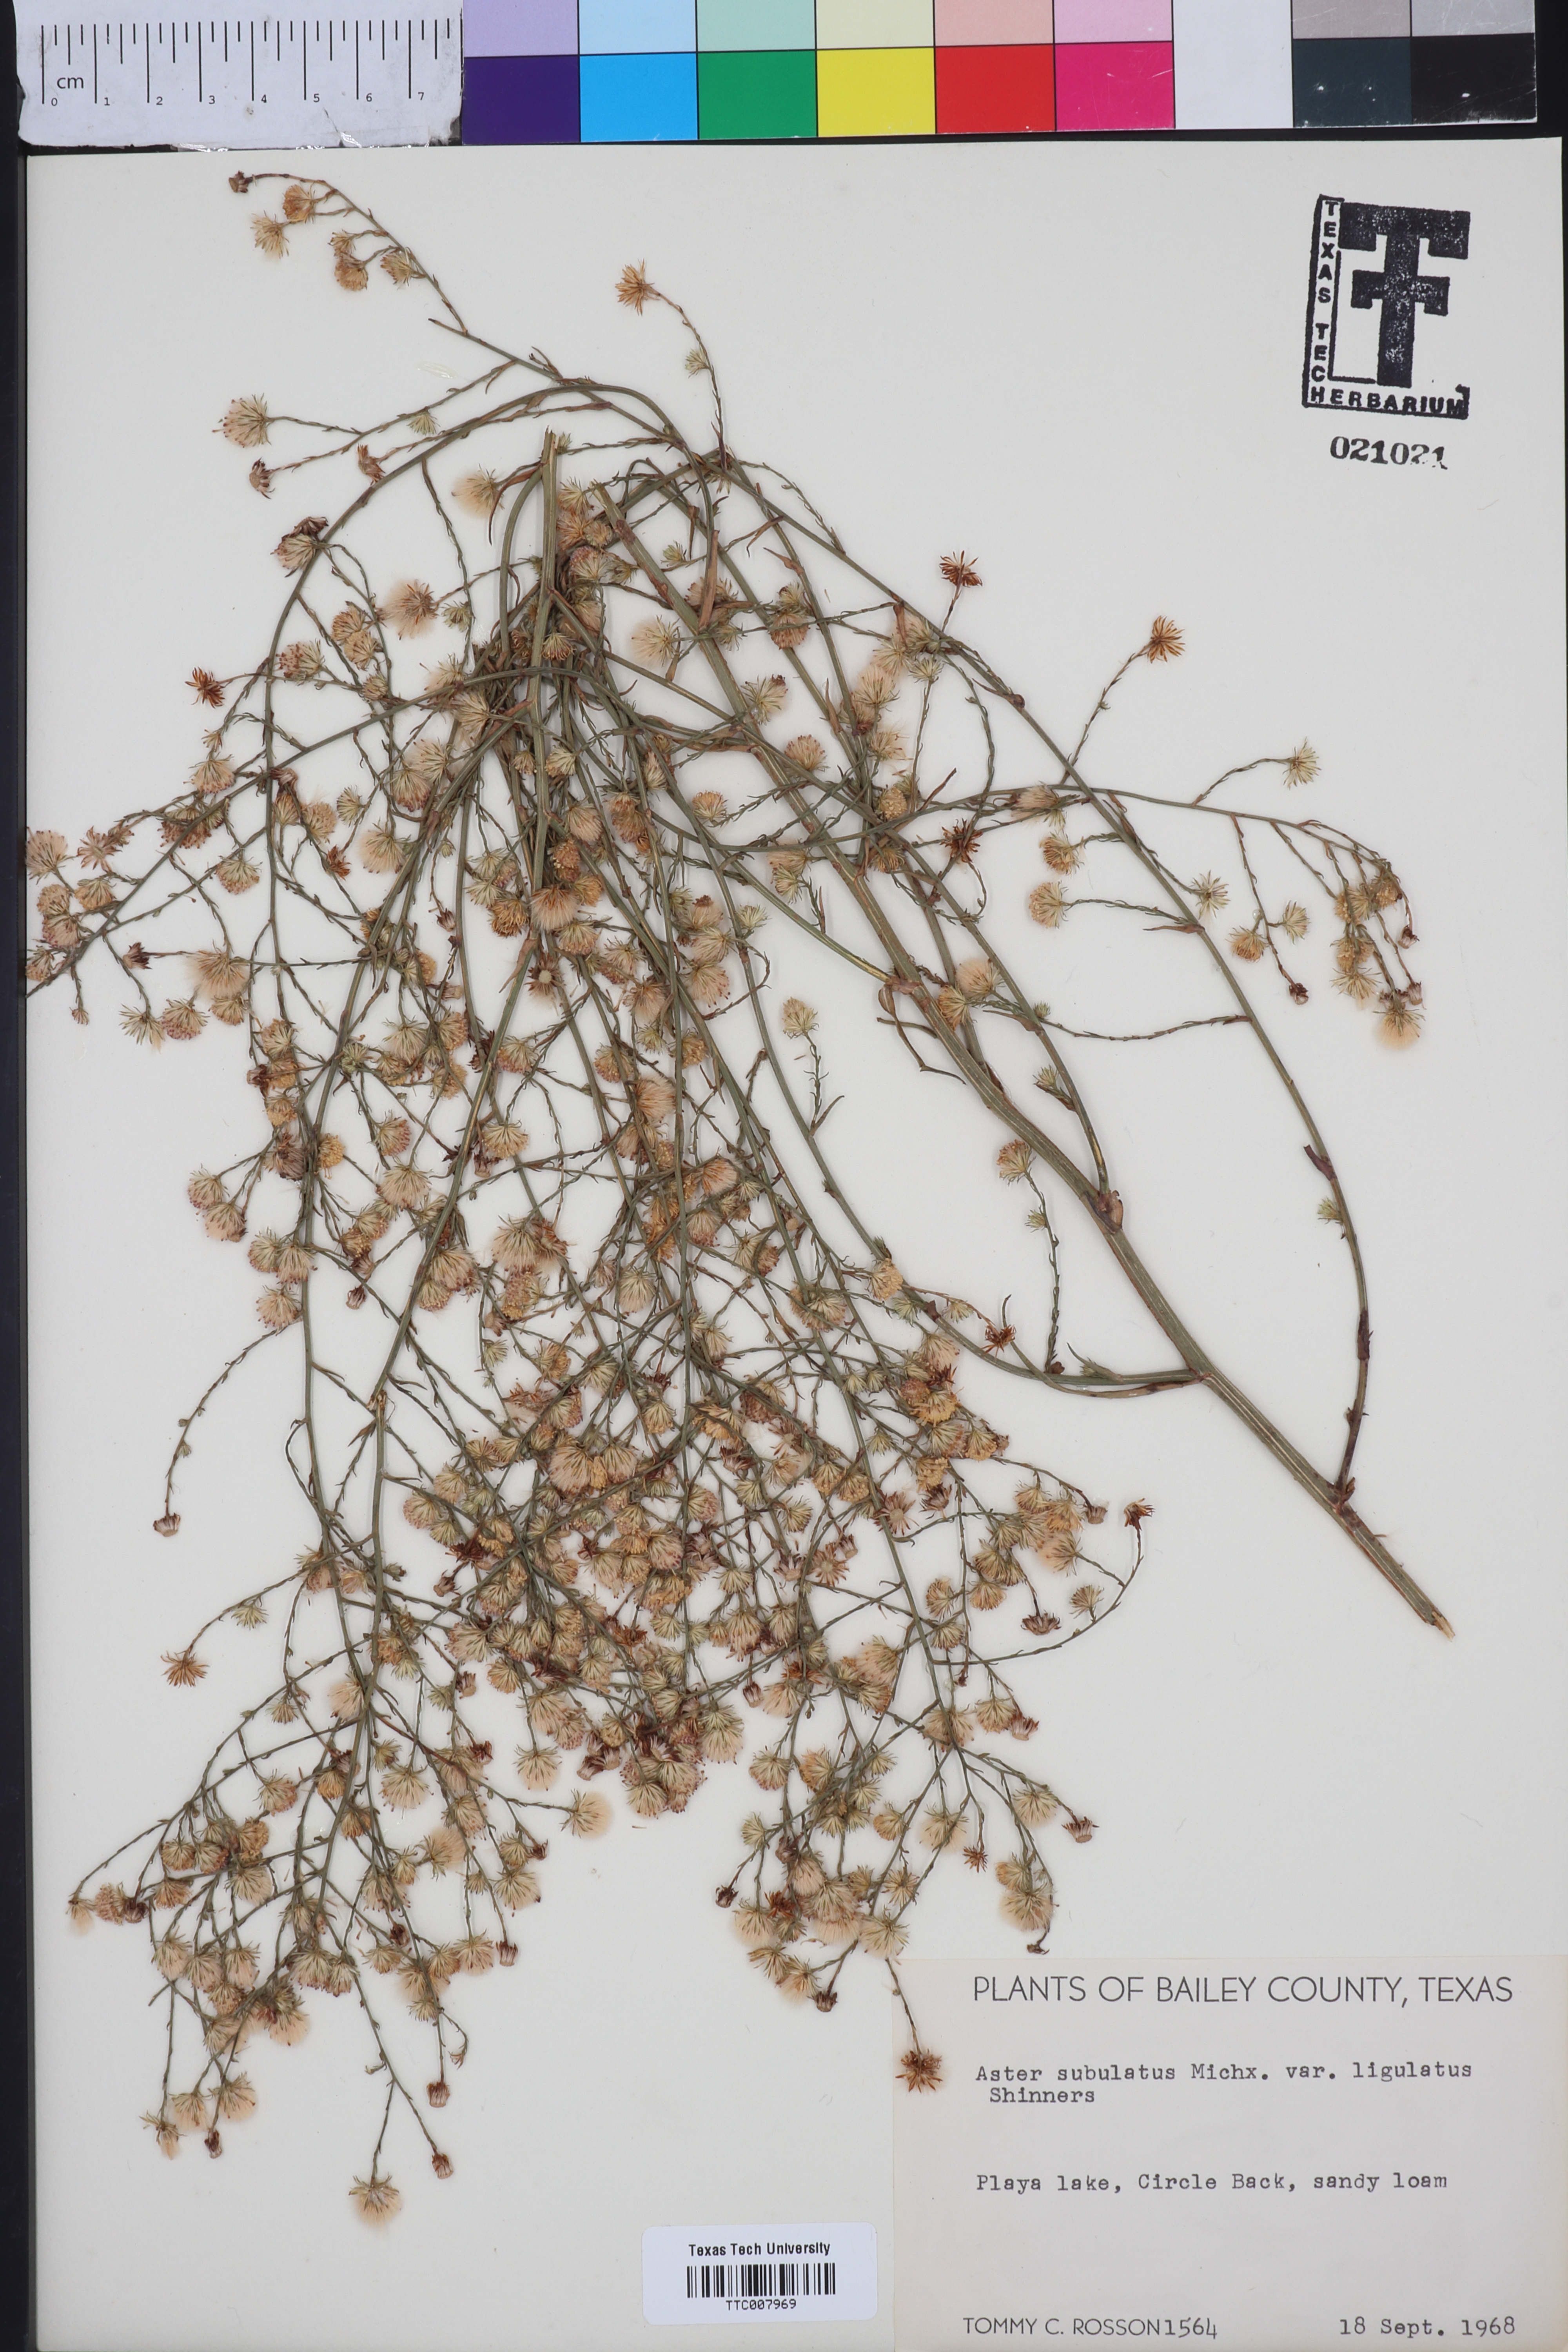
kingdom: Plantae
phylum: Tracheophyta
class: Magnoliopsida
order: Asterales
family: Asteraceae
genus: Symphyotrichum
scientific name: Symphyotrichum divaricatum
